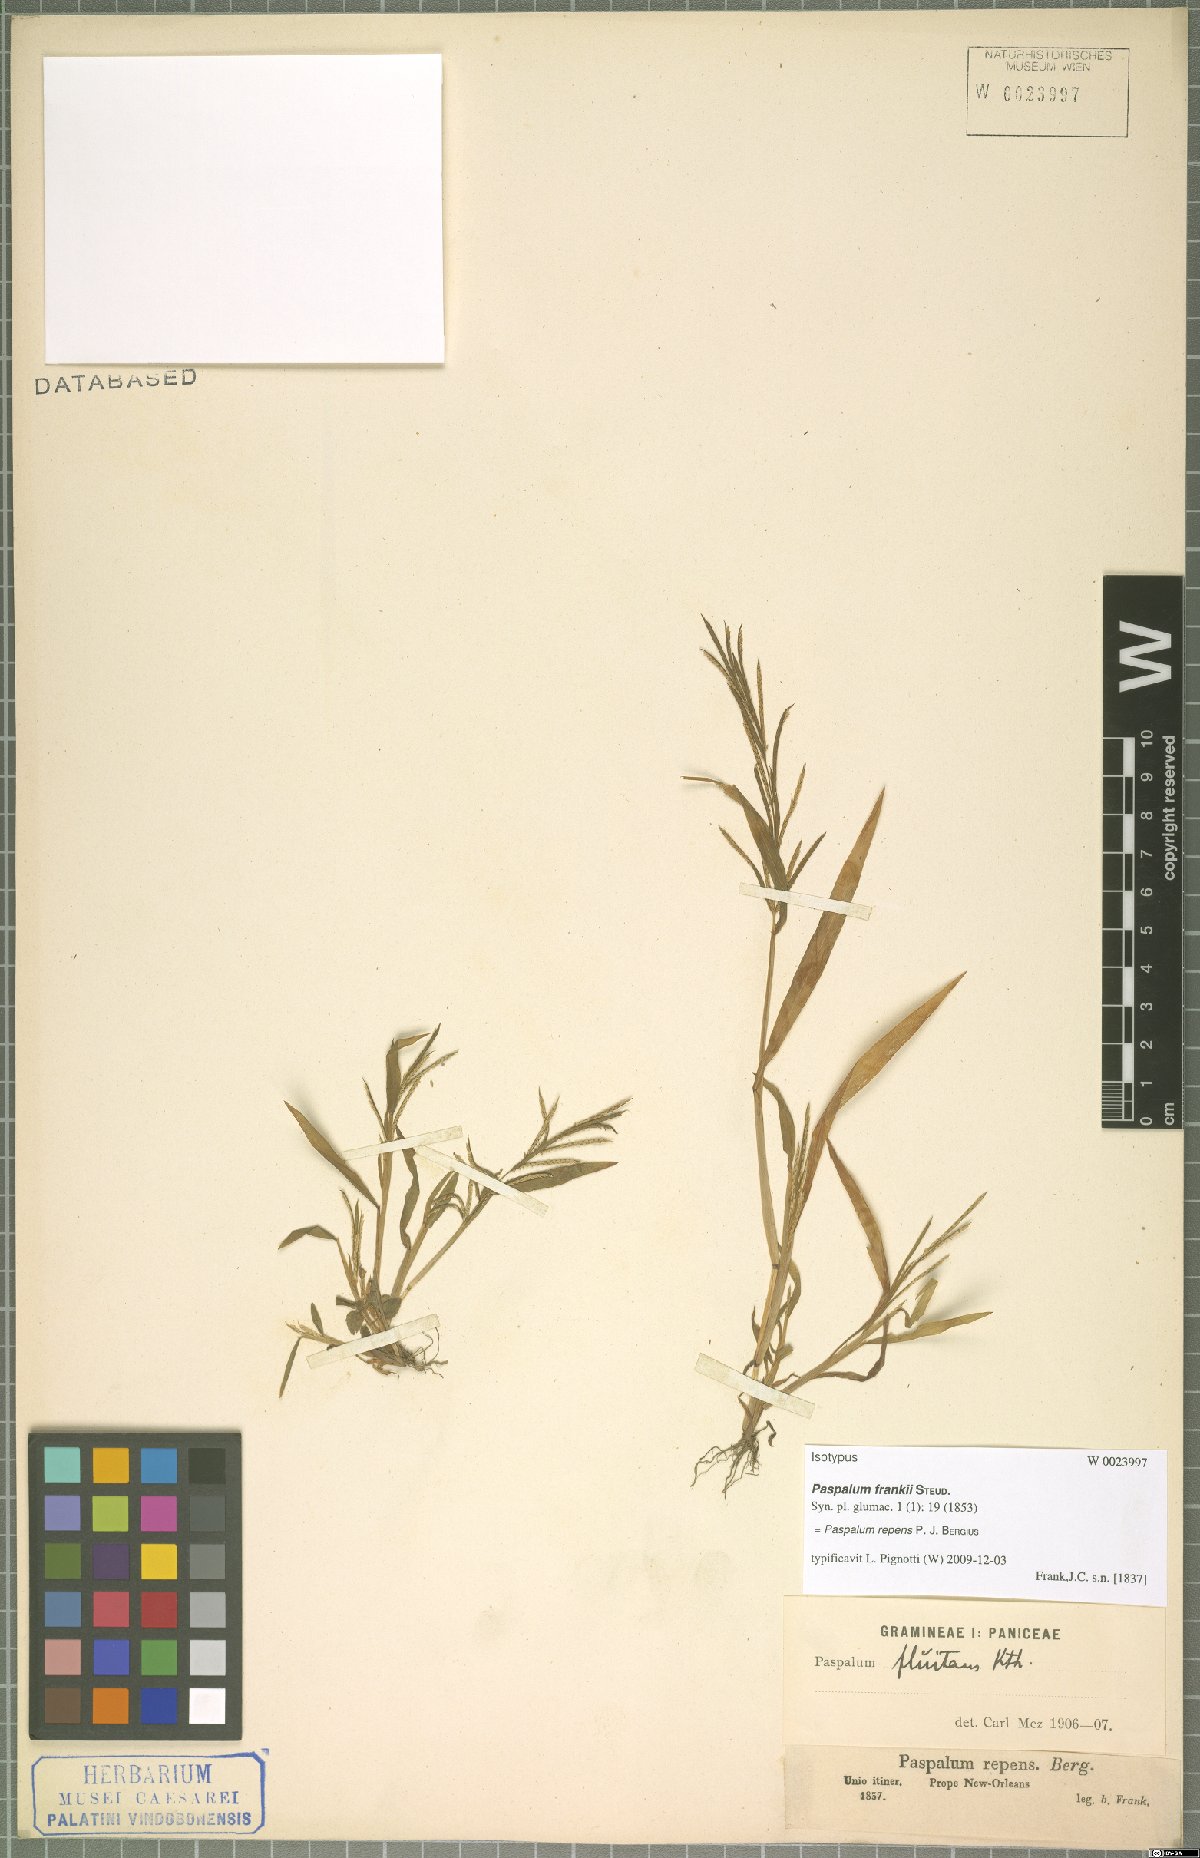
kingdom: Plantae
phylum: Tracheophyta
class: Liliopsida
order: Poales
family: Poaceae
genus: Paspalum
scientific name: Paspalum repens
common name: Water paspalum
